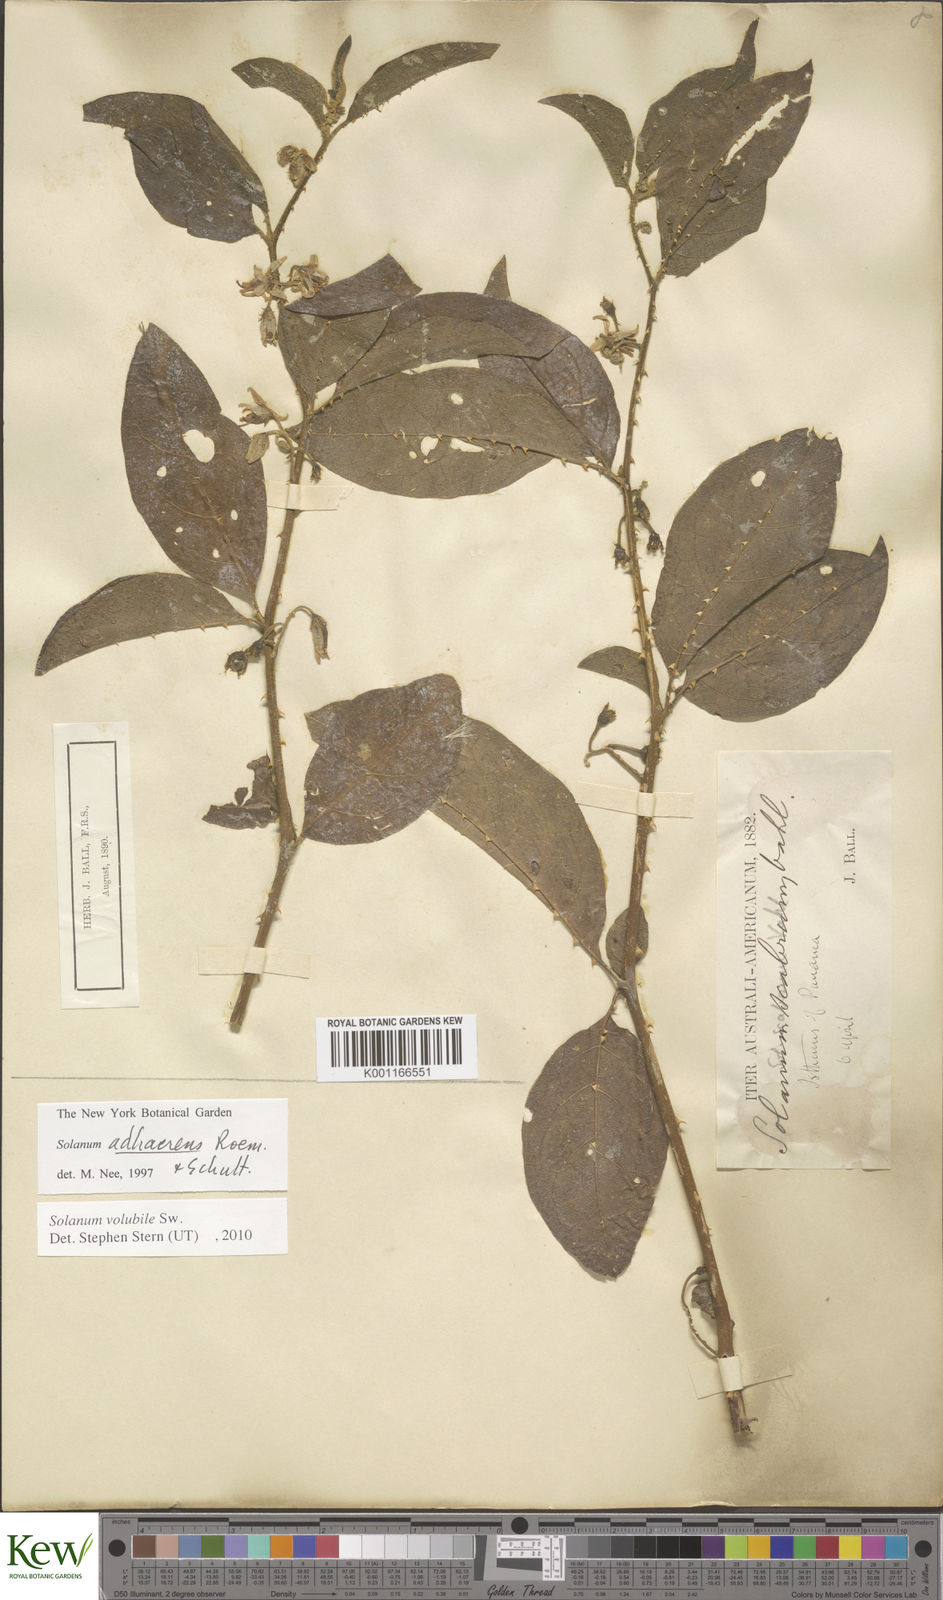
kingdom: Plantae
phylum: Tracheophyta
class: Magnoliopsida
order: Solanales
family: Solanaceae
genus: Solanum
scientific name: Solanum volubile
